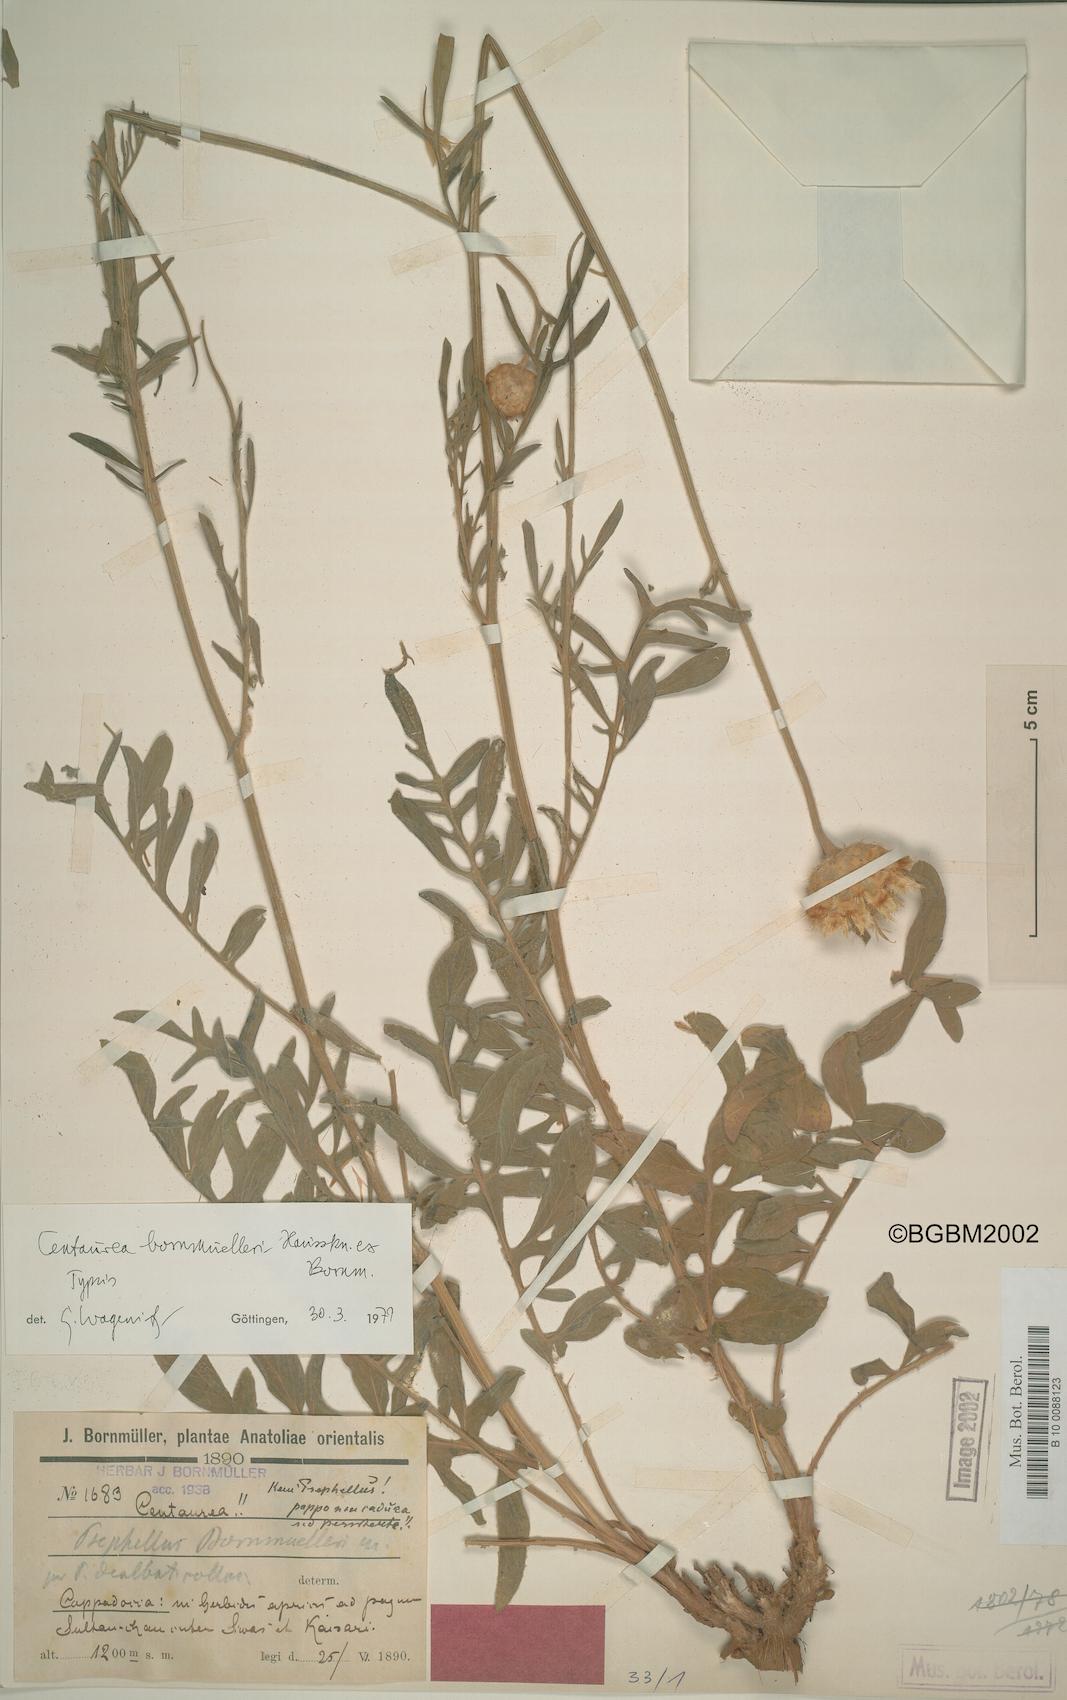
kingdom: Plantae
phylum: Tracheophyta
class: Magnoliopsida
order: Asterales
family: Asteraceae
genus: Psephellus
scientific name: Psephellus bornmuelleri
